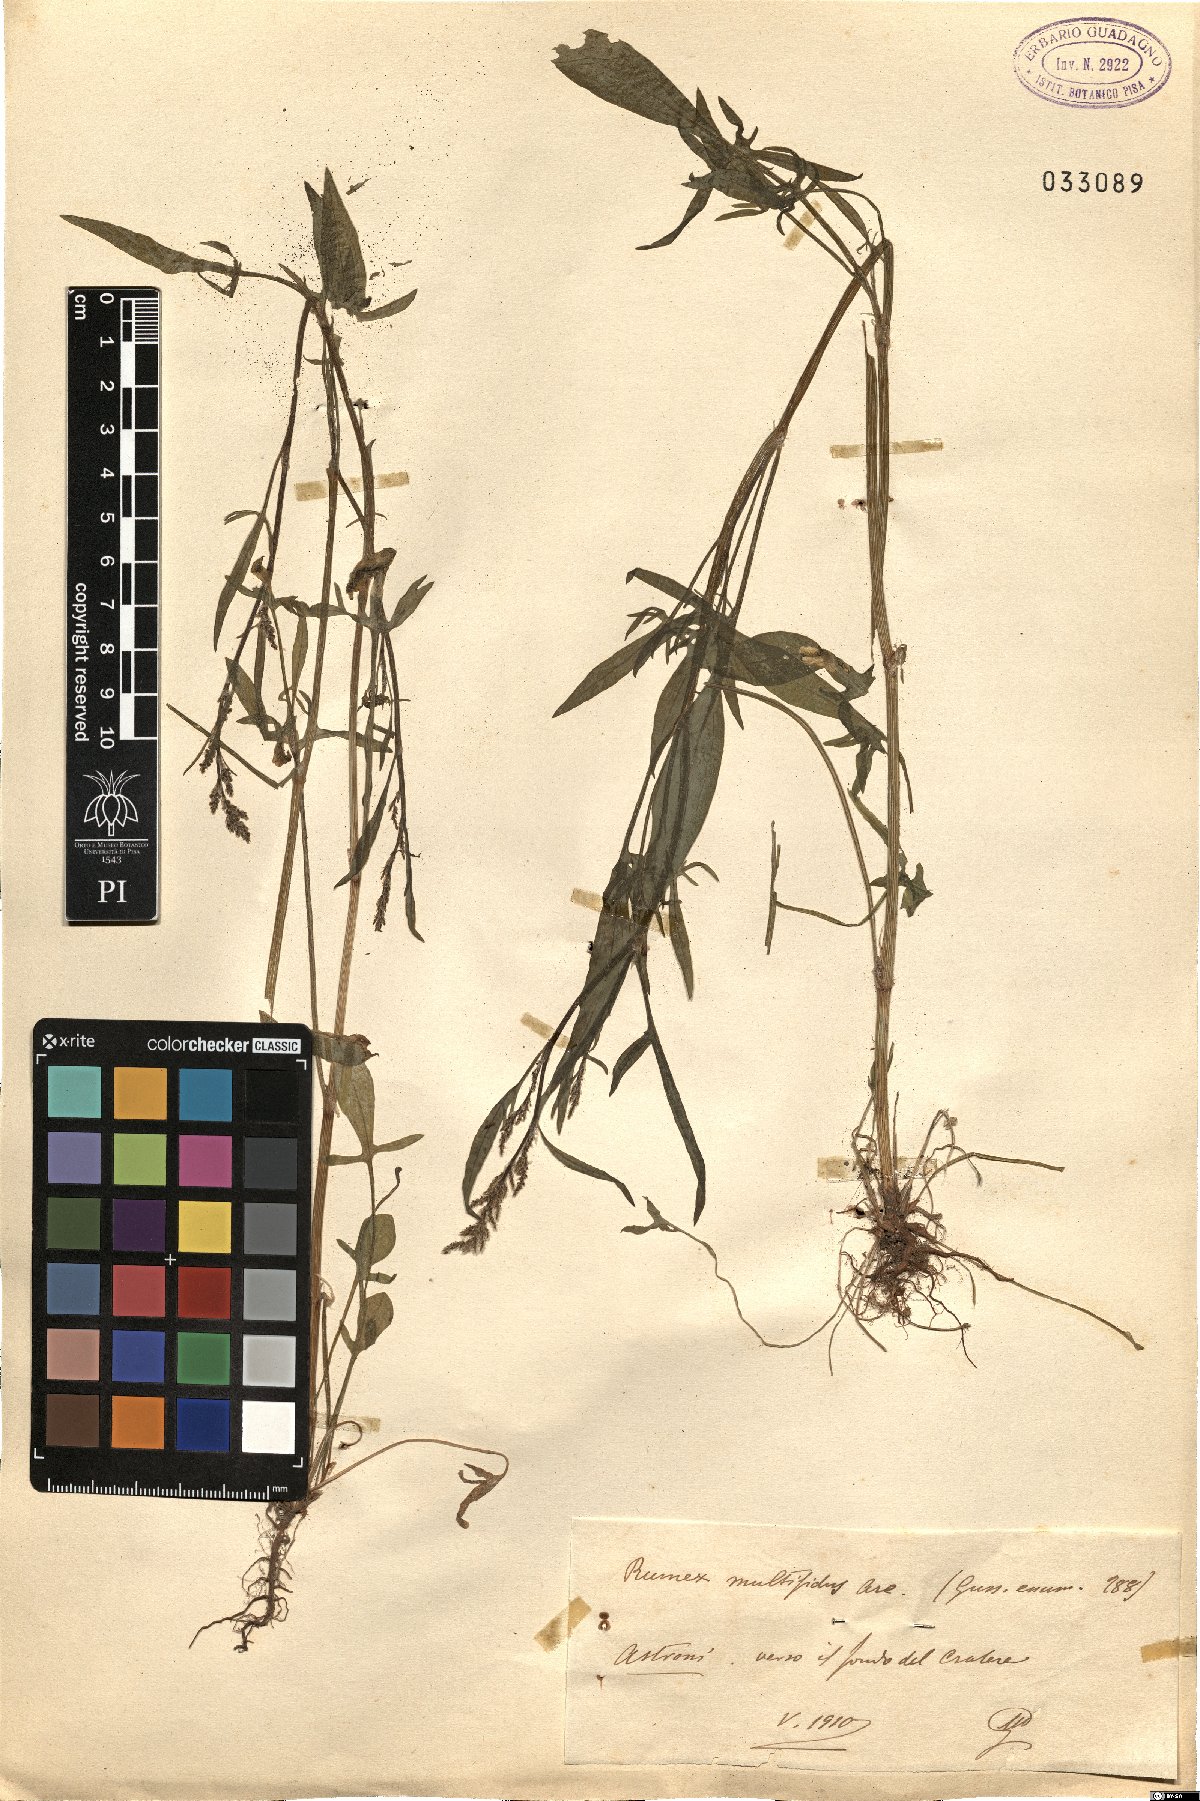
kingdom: Plantae
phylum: Tracheophyta
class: Magnoliopsida
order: Caryophyllales
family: Polygonaceae
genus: Rumex
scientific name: Rumex acetosella
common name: Common sheep sorrel
